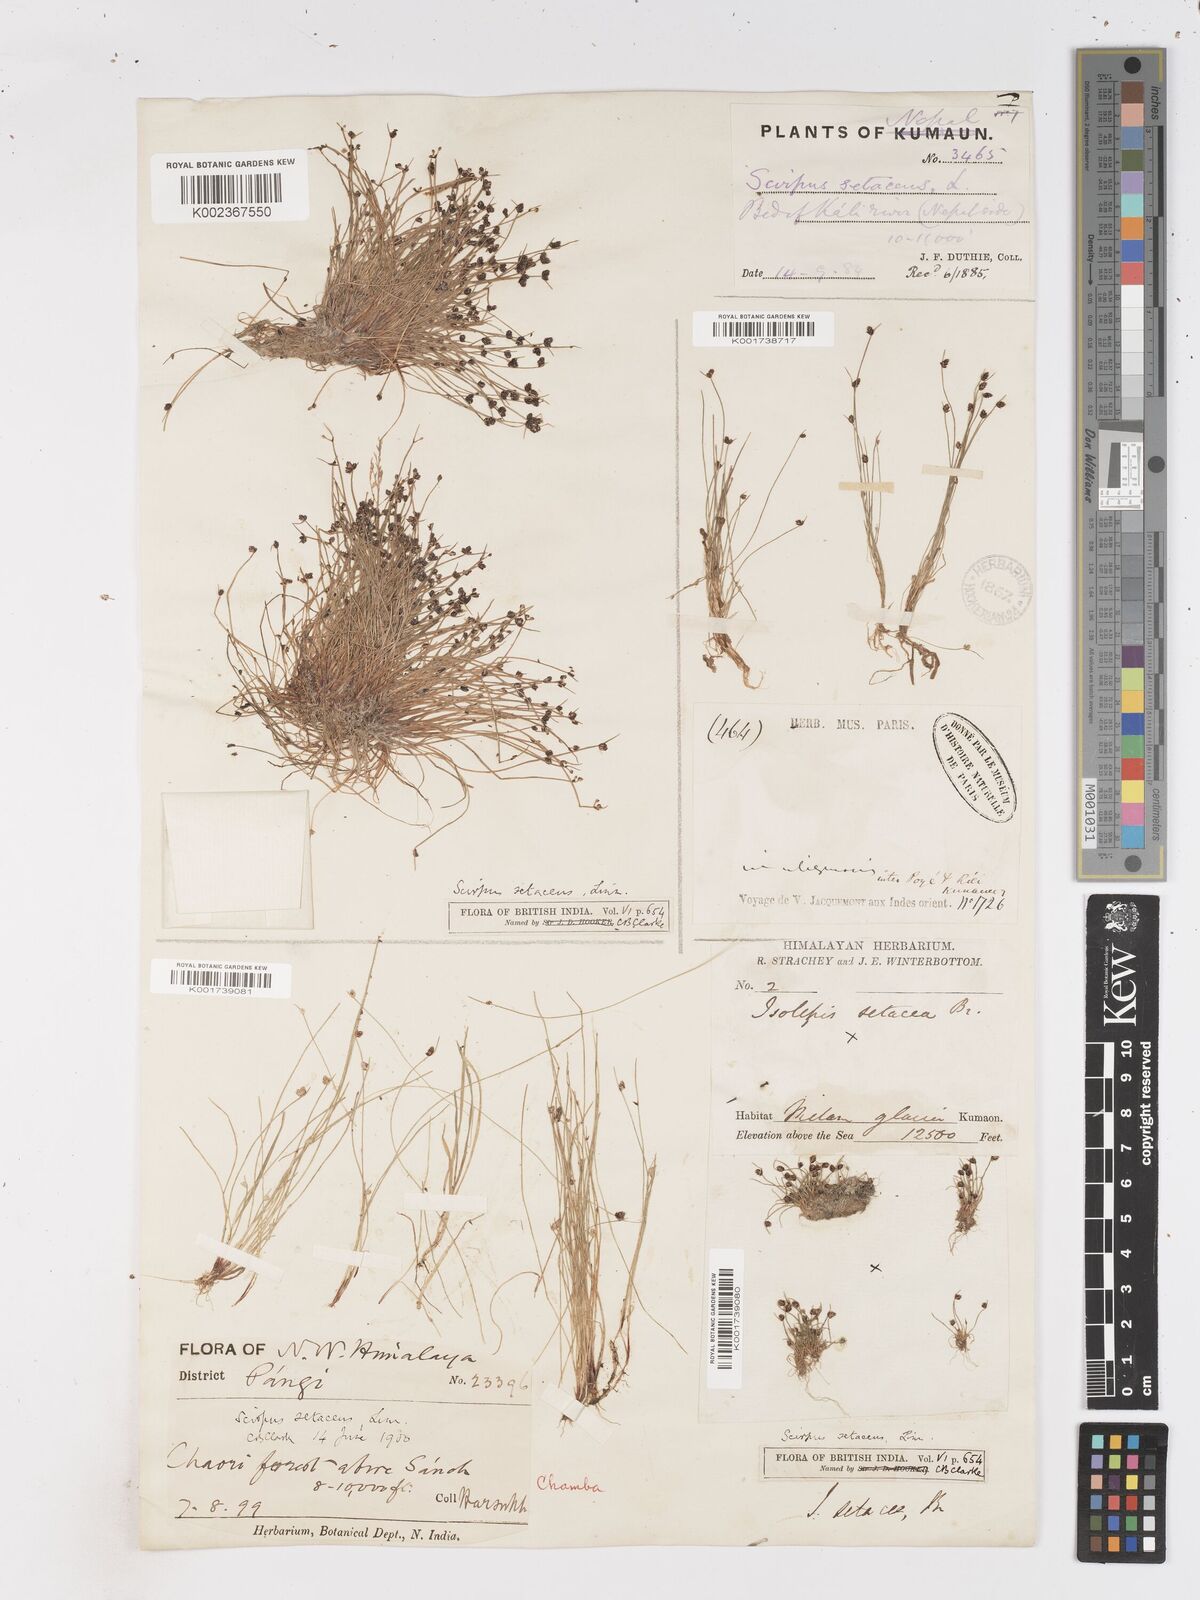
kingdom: Plantae
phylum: Tracheophyta
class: Liliopsida
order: Poales
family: Cyperaceae
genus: Isolepis
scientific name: Isolepis setacea
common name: Bristle club-rush
